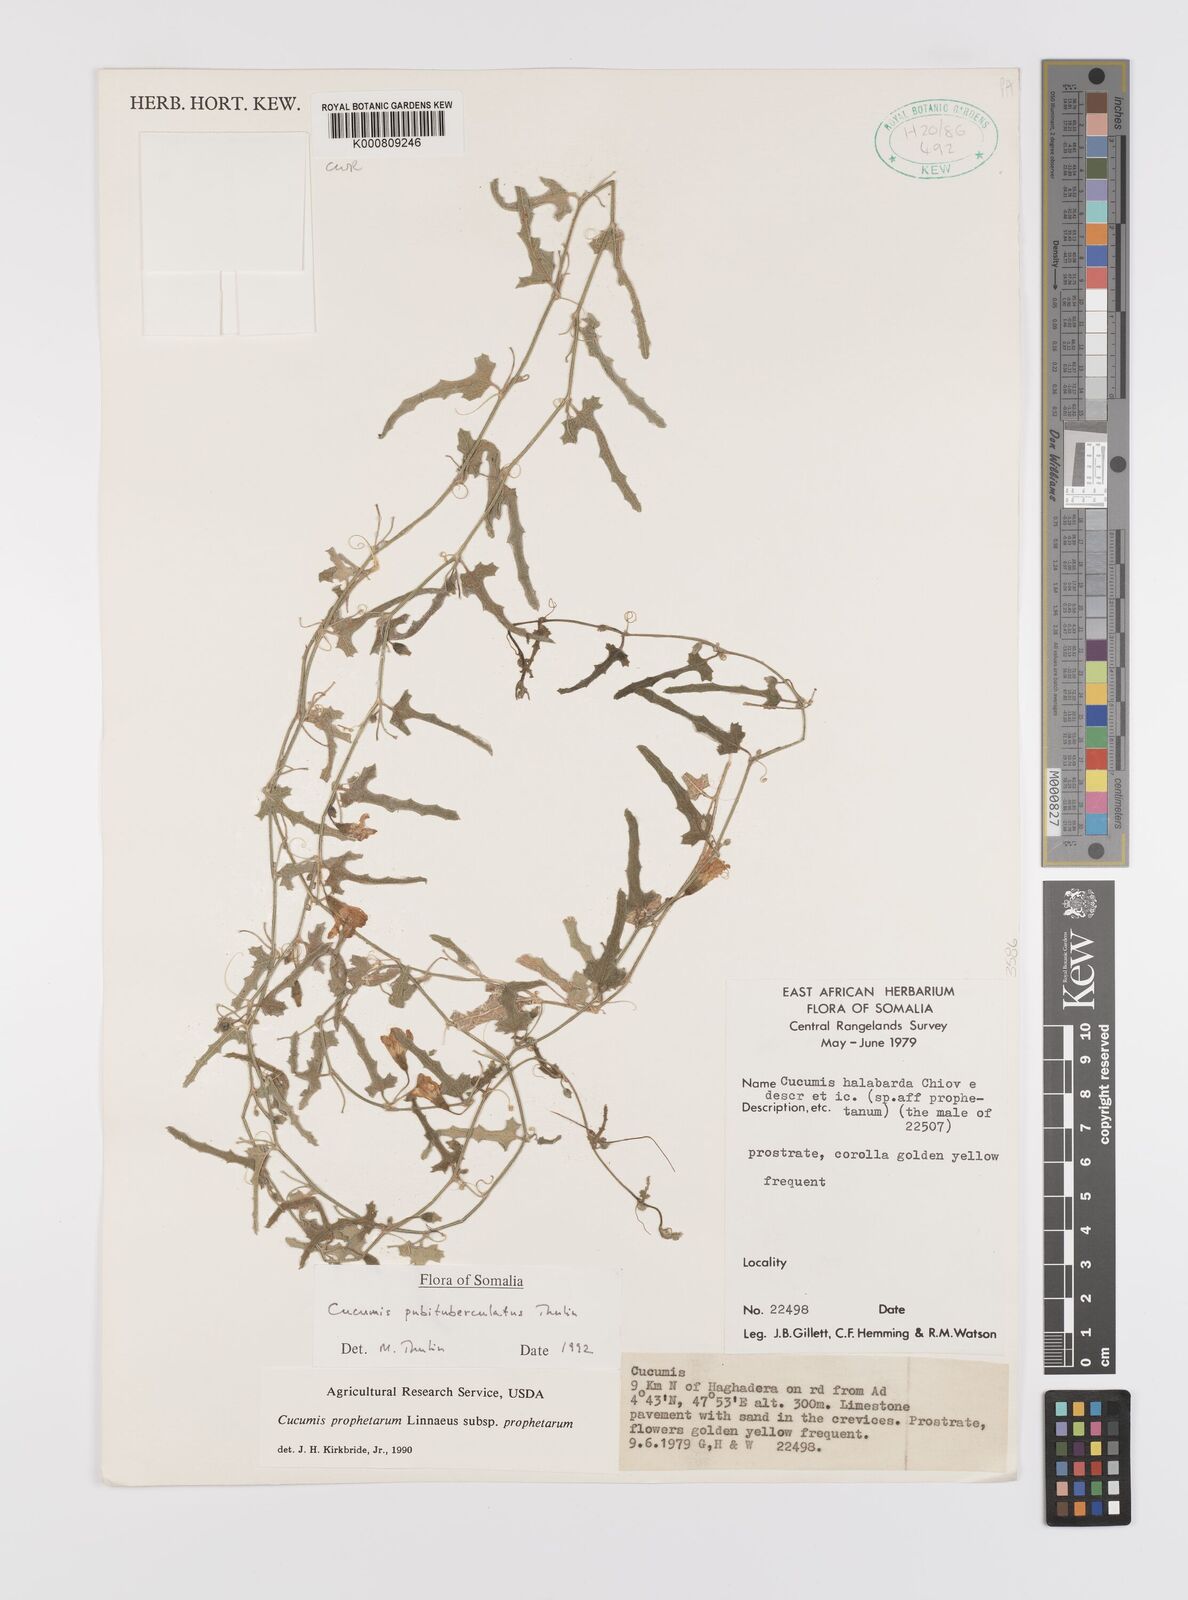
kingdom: Plantae
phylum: Tracheophyta
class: Magnoliopsida
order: Cucurbitales
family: Cucurbitaceae
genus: Cucumis
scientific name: Cucumis prophetarum
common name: Wild cucumber
